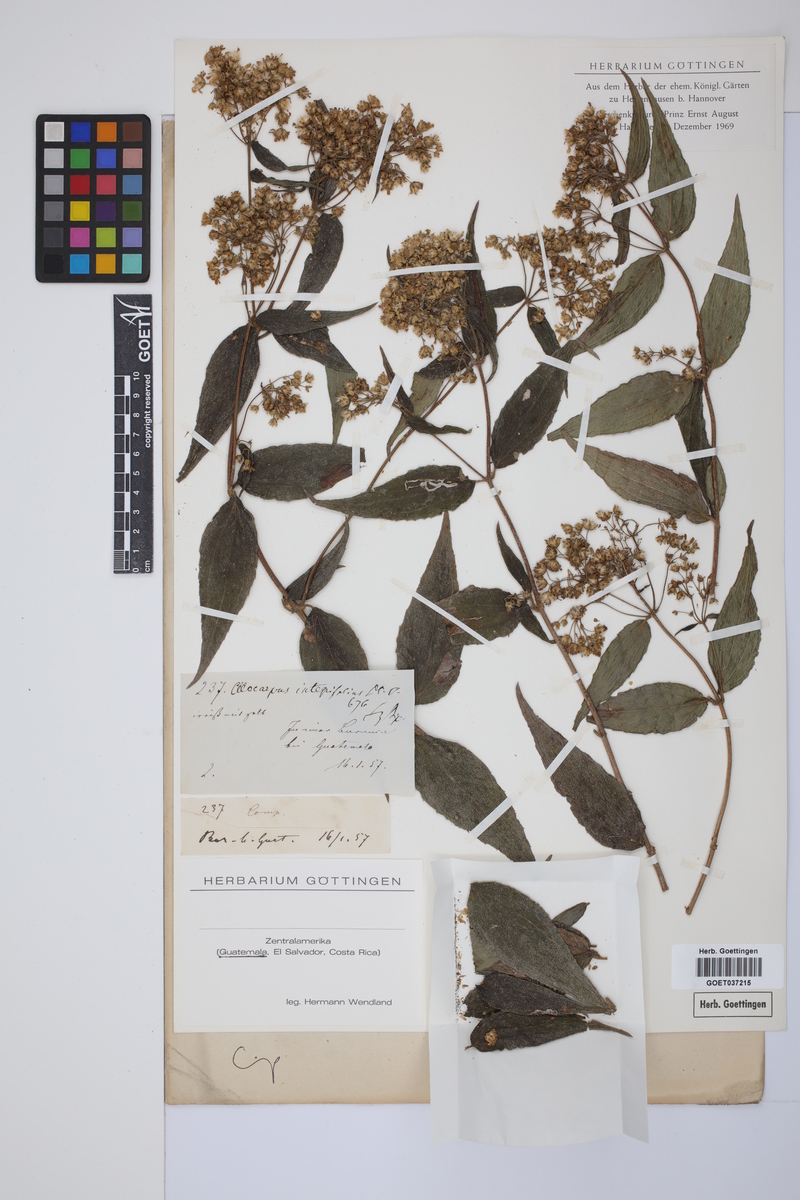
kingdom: Plantae
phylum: Tracheophyta
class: Magnoliopsida
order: Asterales
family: Asteraceae
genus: Alloispermum
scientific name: Alloispermum integrifolium
